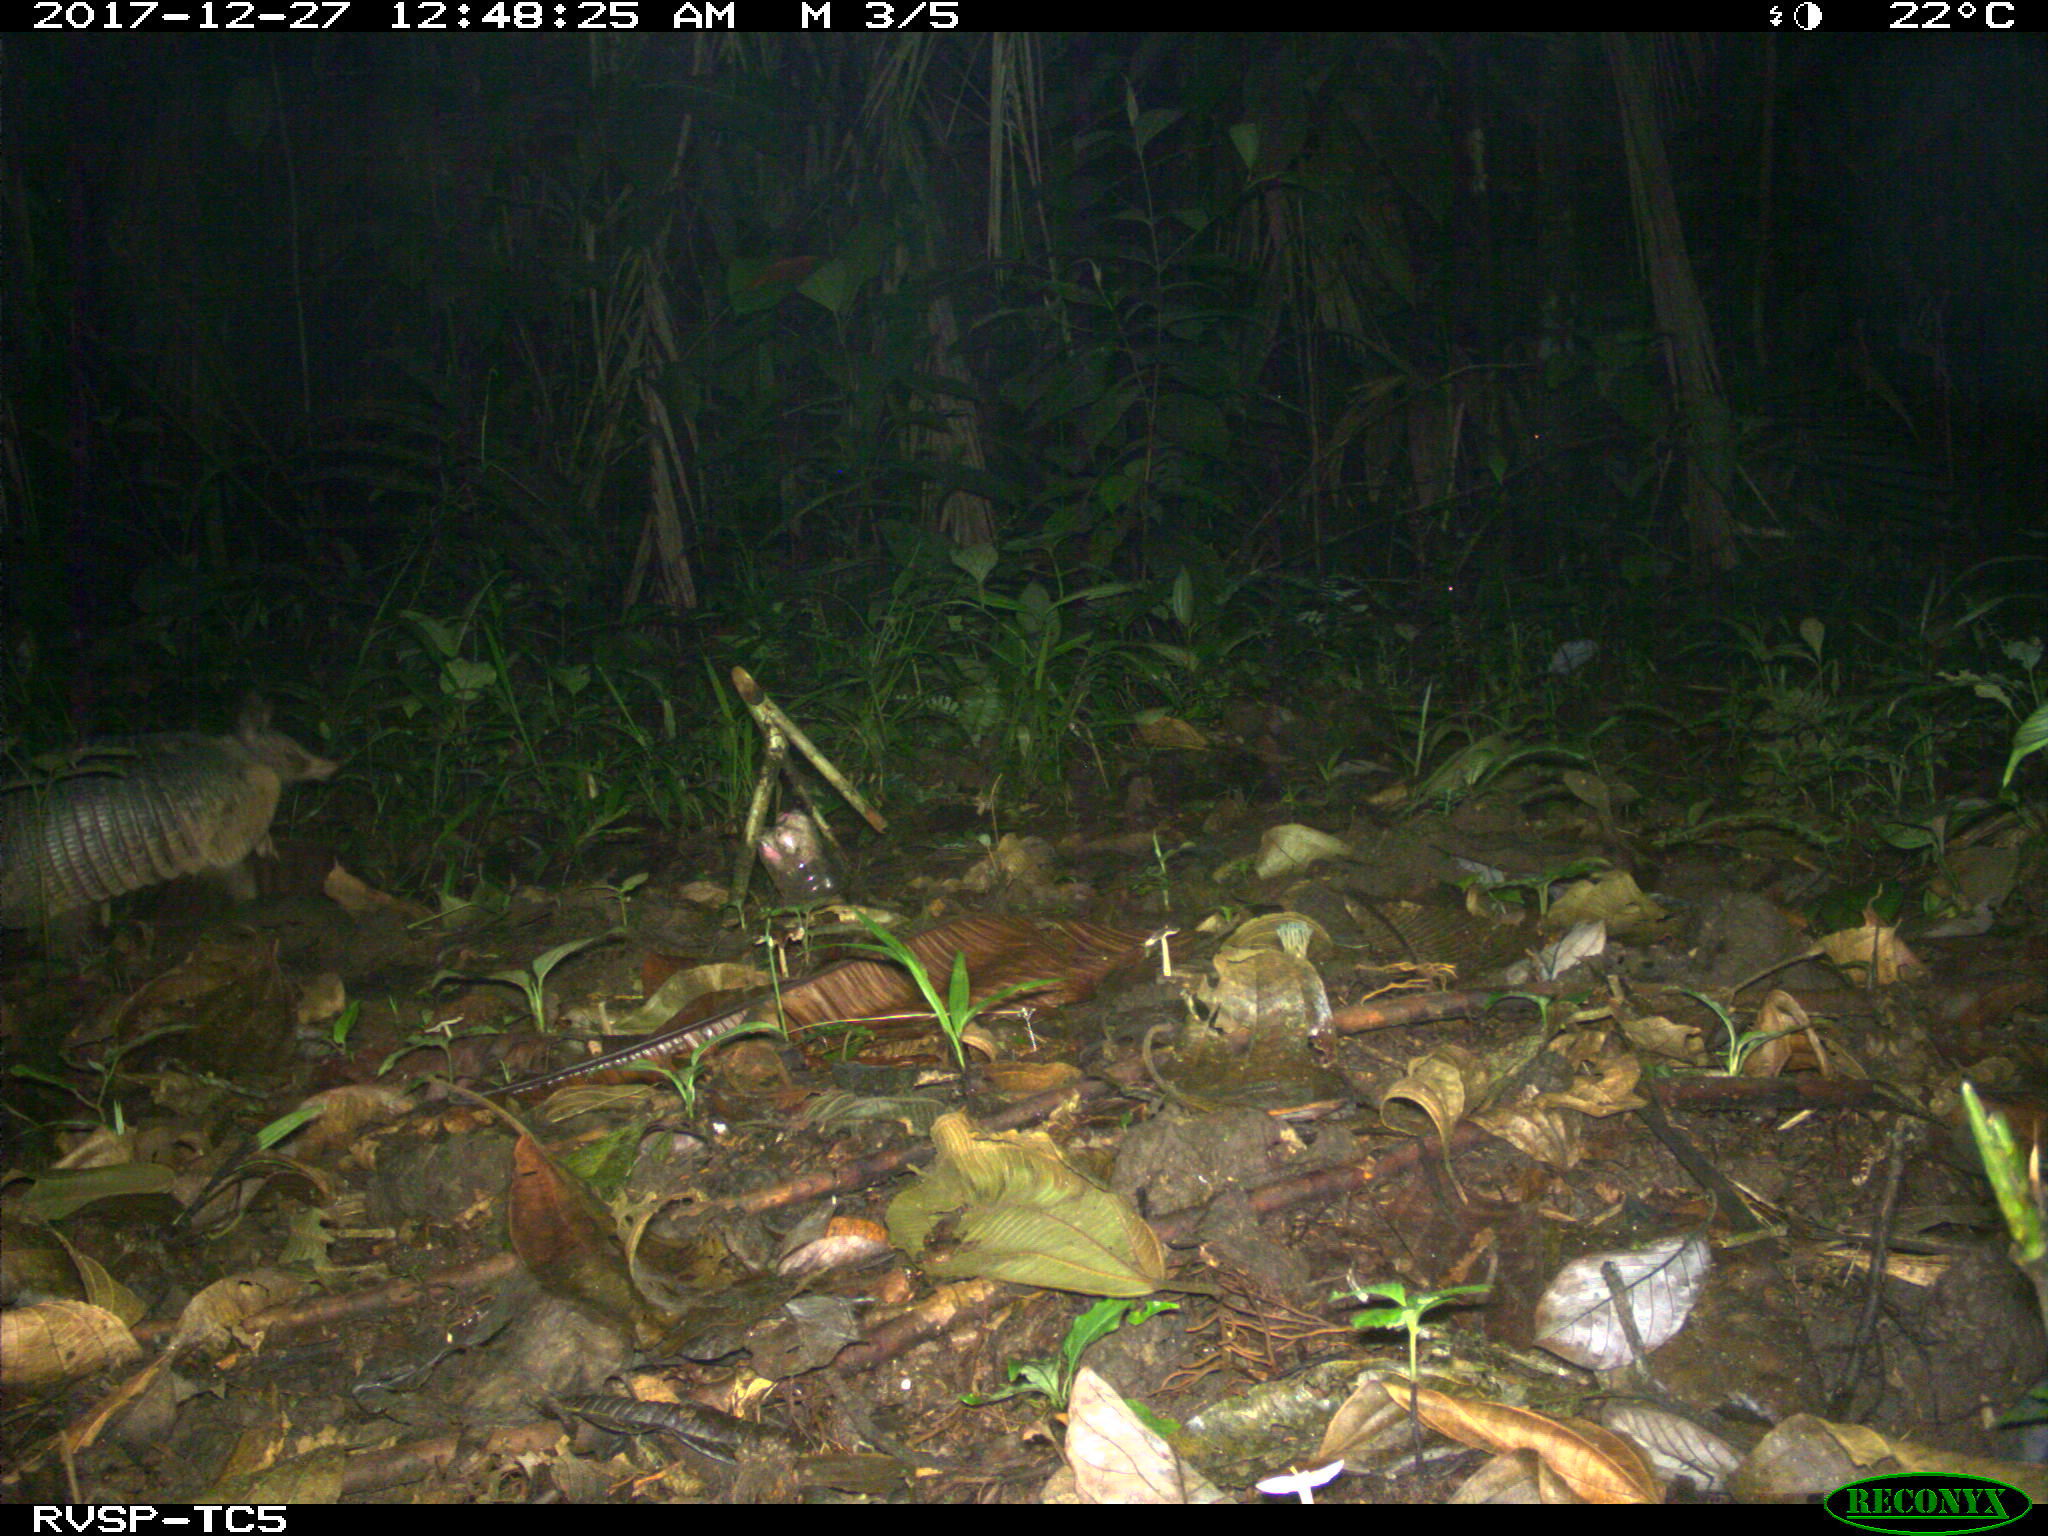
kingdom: Animalia
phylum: Chordata
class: Mammalia
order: Cingulata
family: Dasypodidae
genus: Dasypus
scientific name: Dasypus novemcinctus
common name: Nine-banded armadillo
